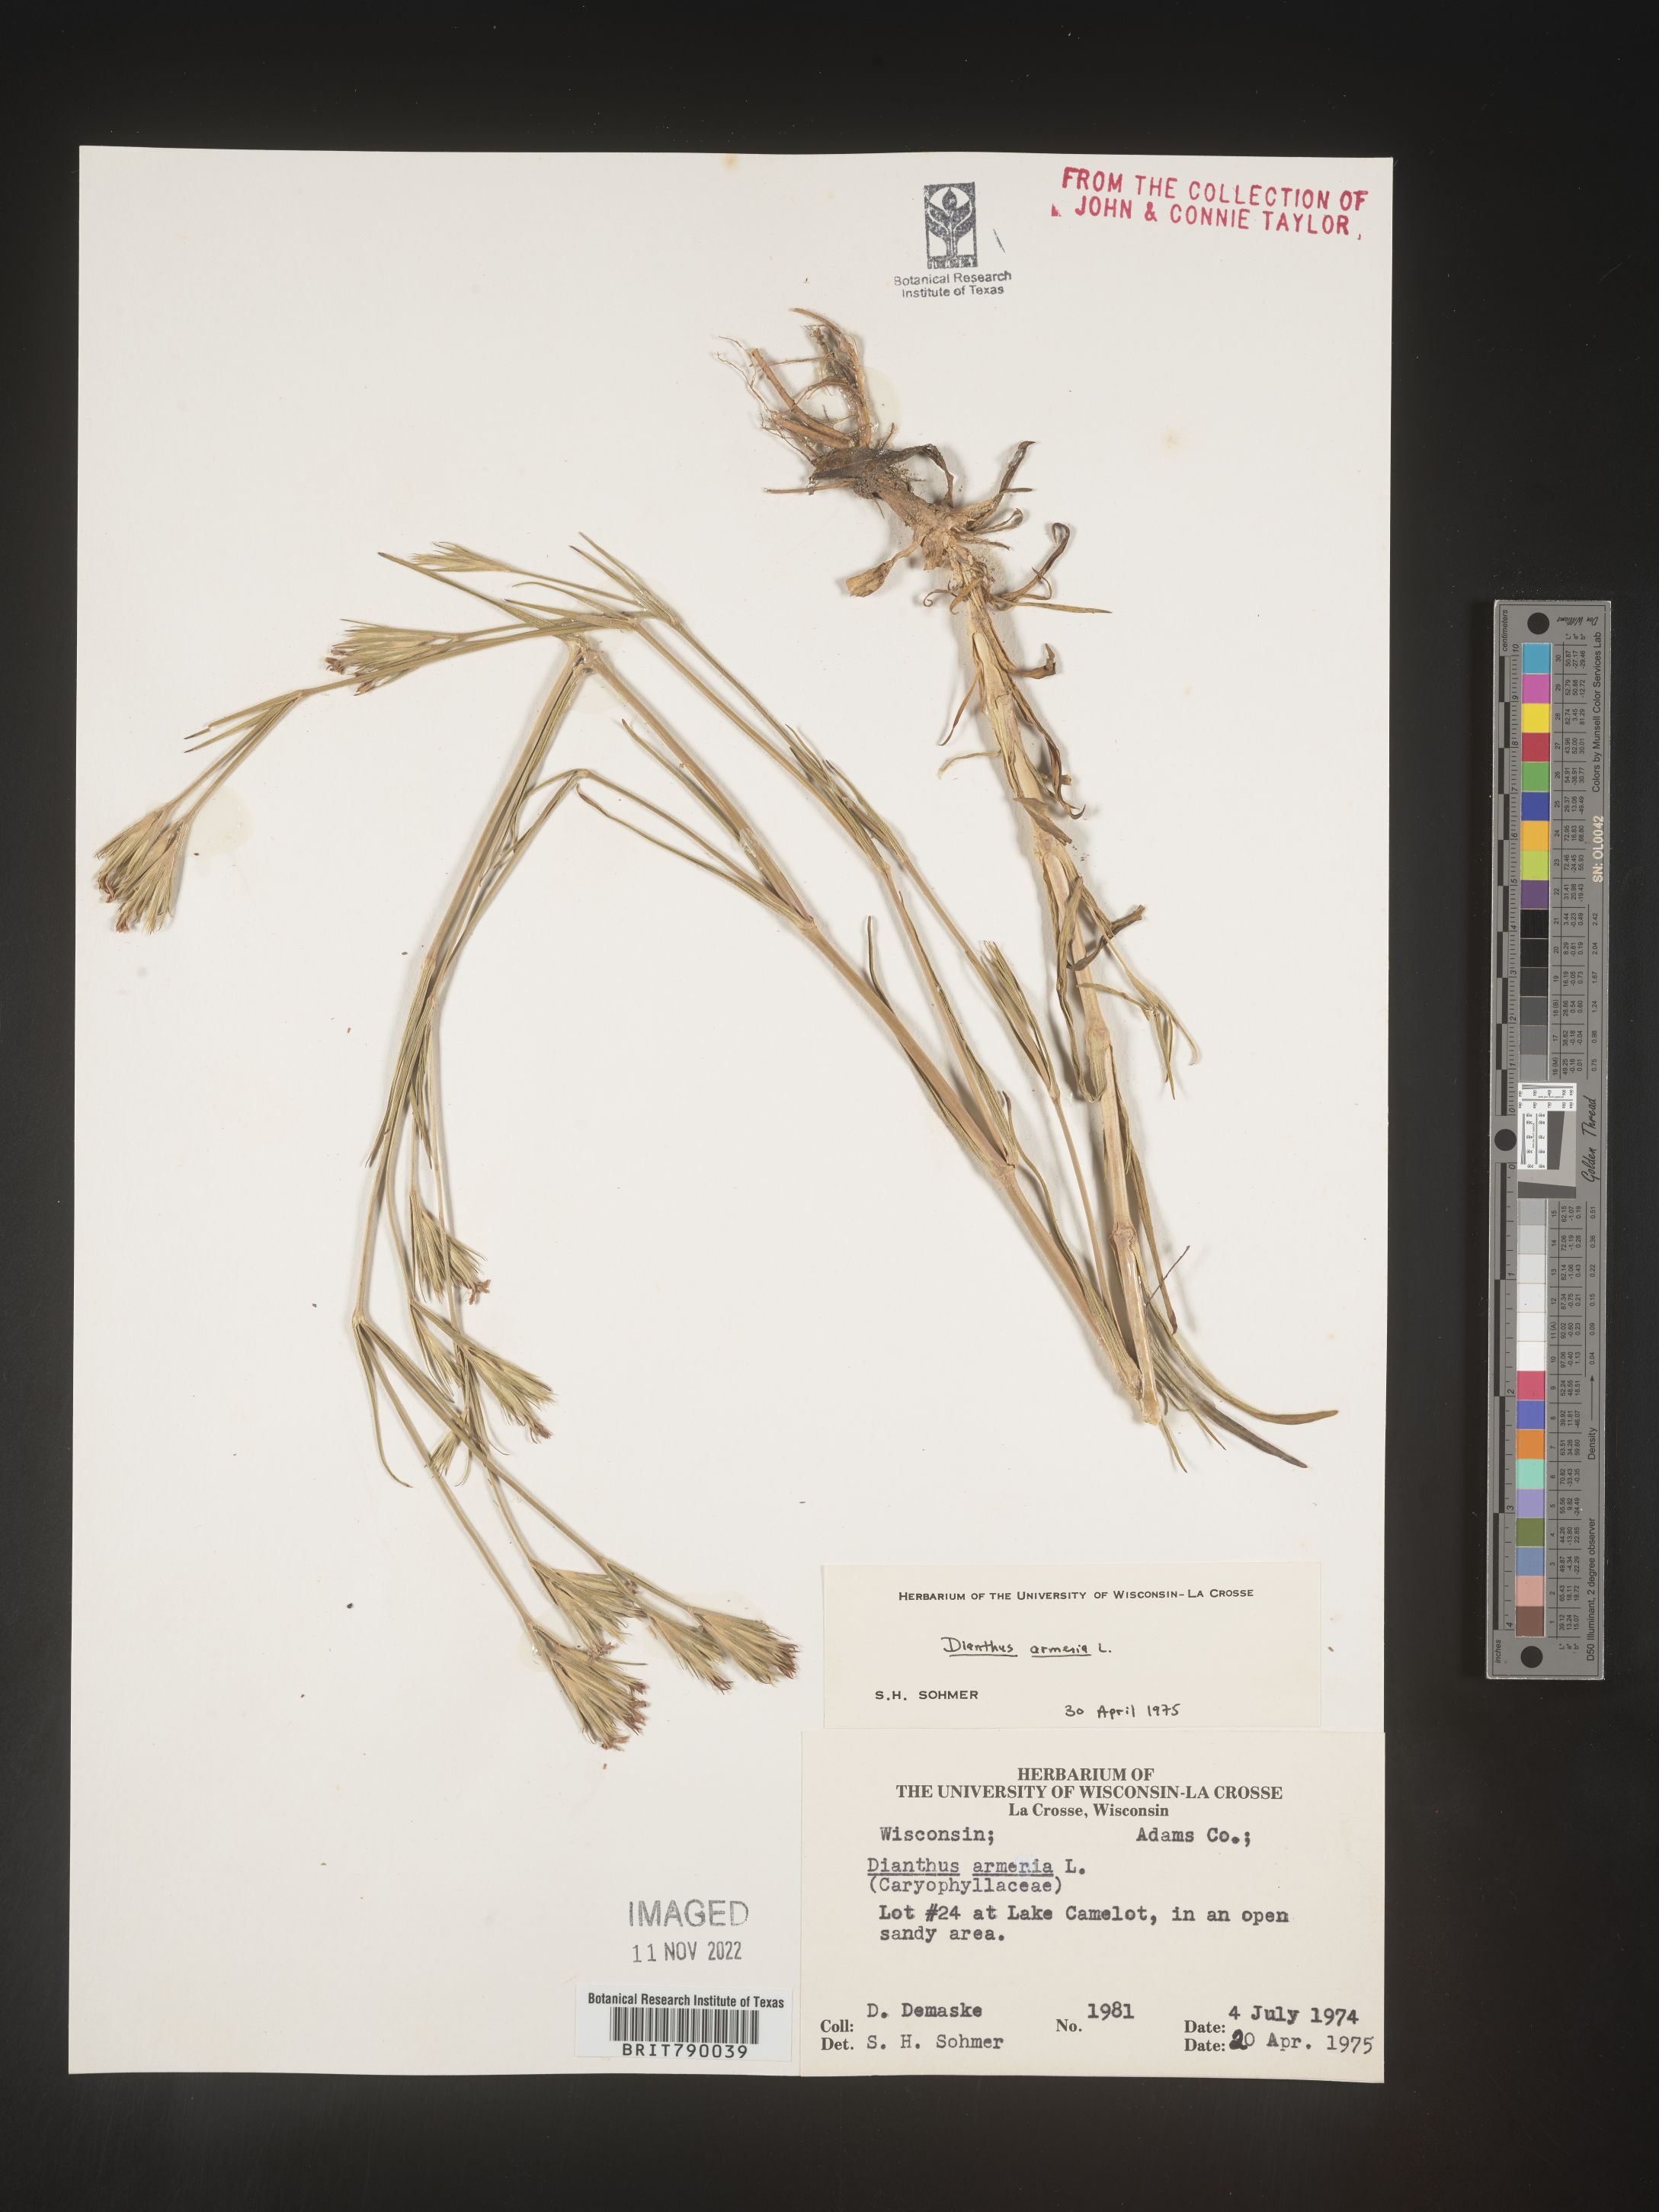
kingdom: Plantae
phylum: Tracheophyta
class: Magnoliopsida
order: Caryophyllales
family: Caryophyllaceae
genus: Dianthus
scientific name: Dianthus armeria
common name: Deptford pink
